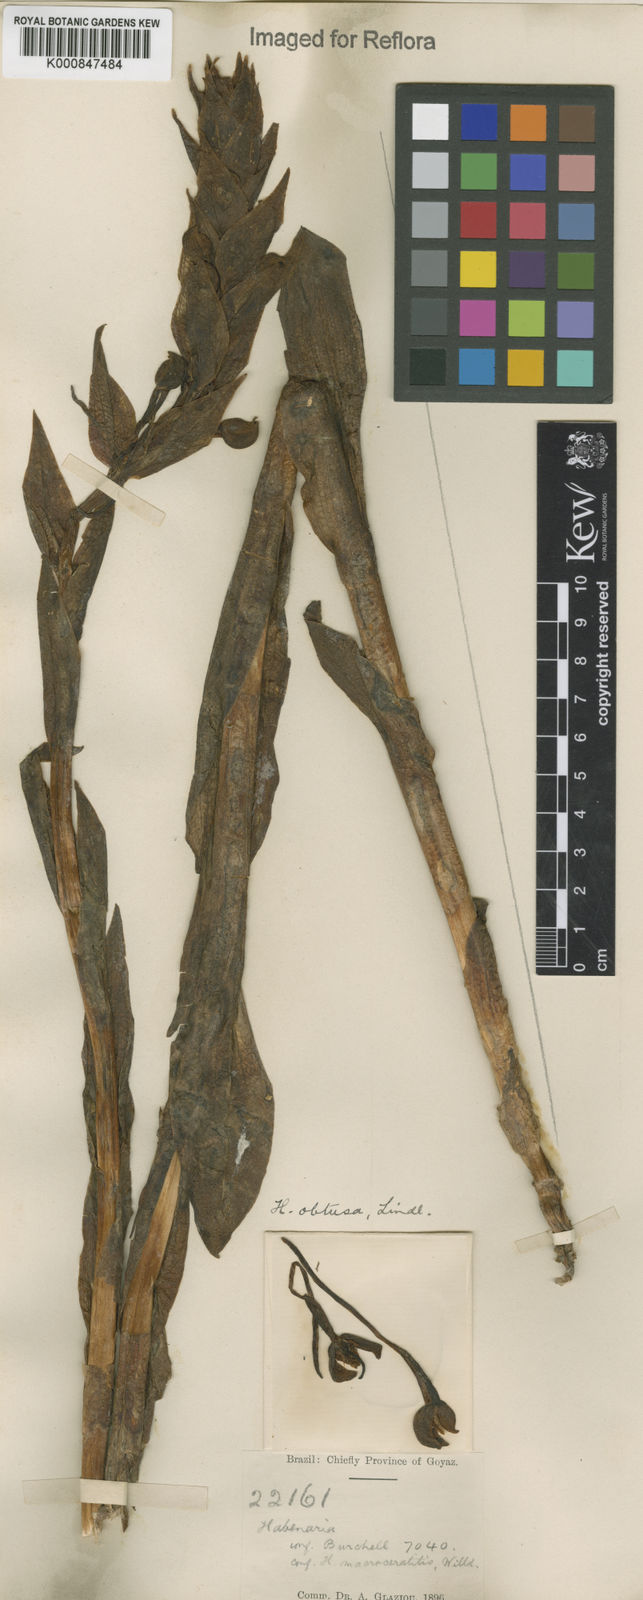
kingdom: Plantae
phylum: Tracheophyta
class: Liliopsida
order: Asparagales
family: Orchidaceae
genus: Habenaria
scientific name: Habenaria obtusa
